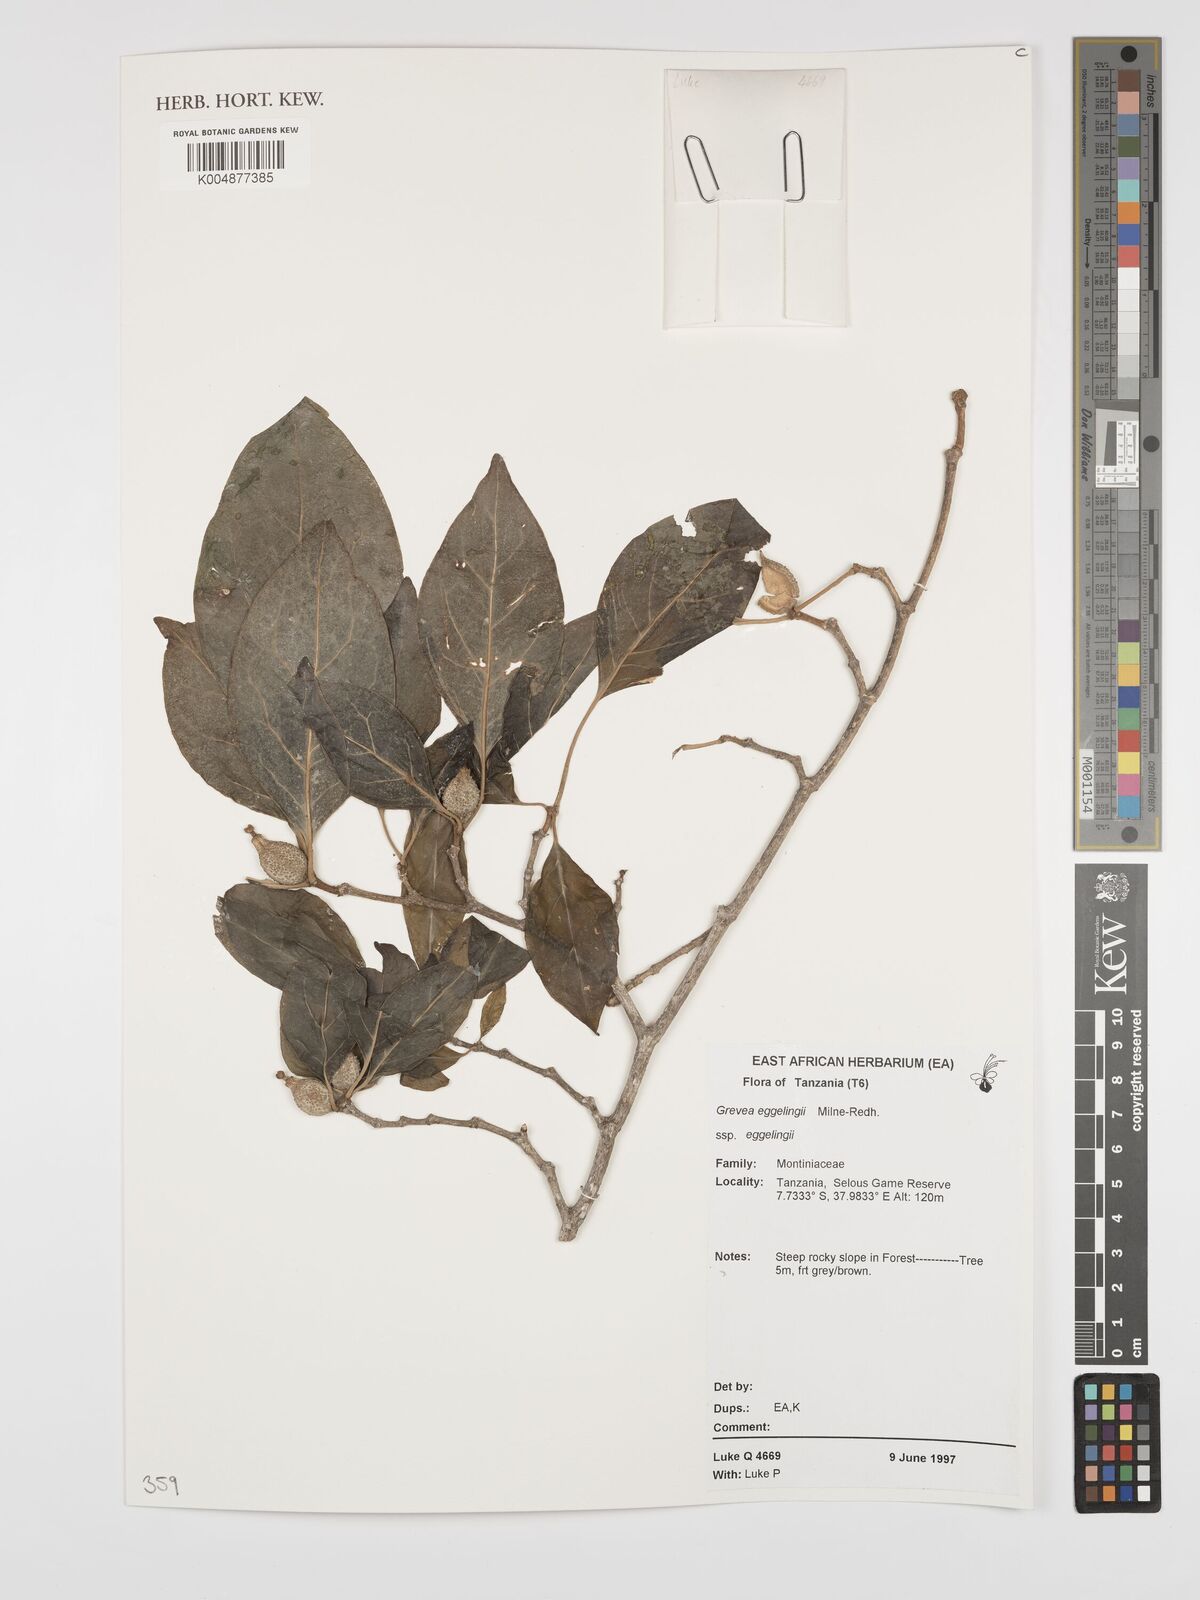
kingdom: Plantae
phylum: Tracheophyta
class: Magnoliopsida
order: Solanales
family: Montiniaceae
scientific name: Montiniaceae
